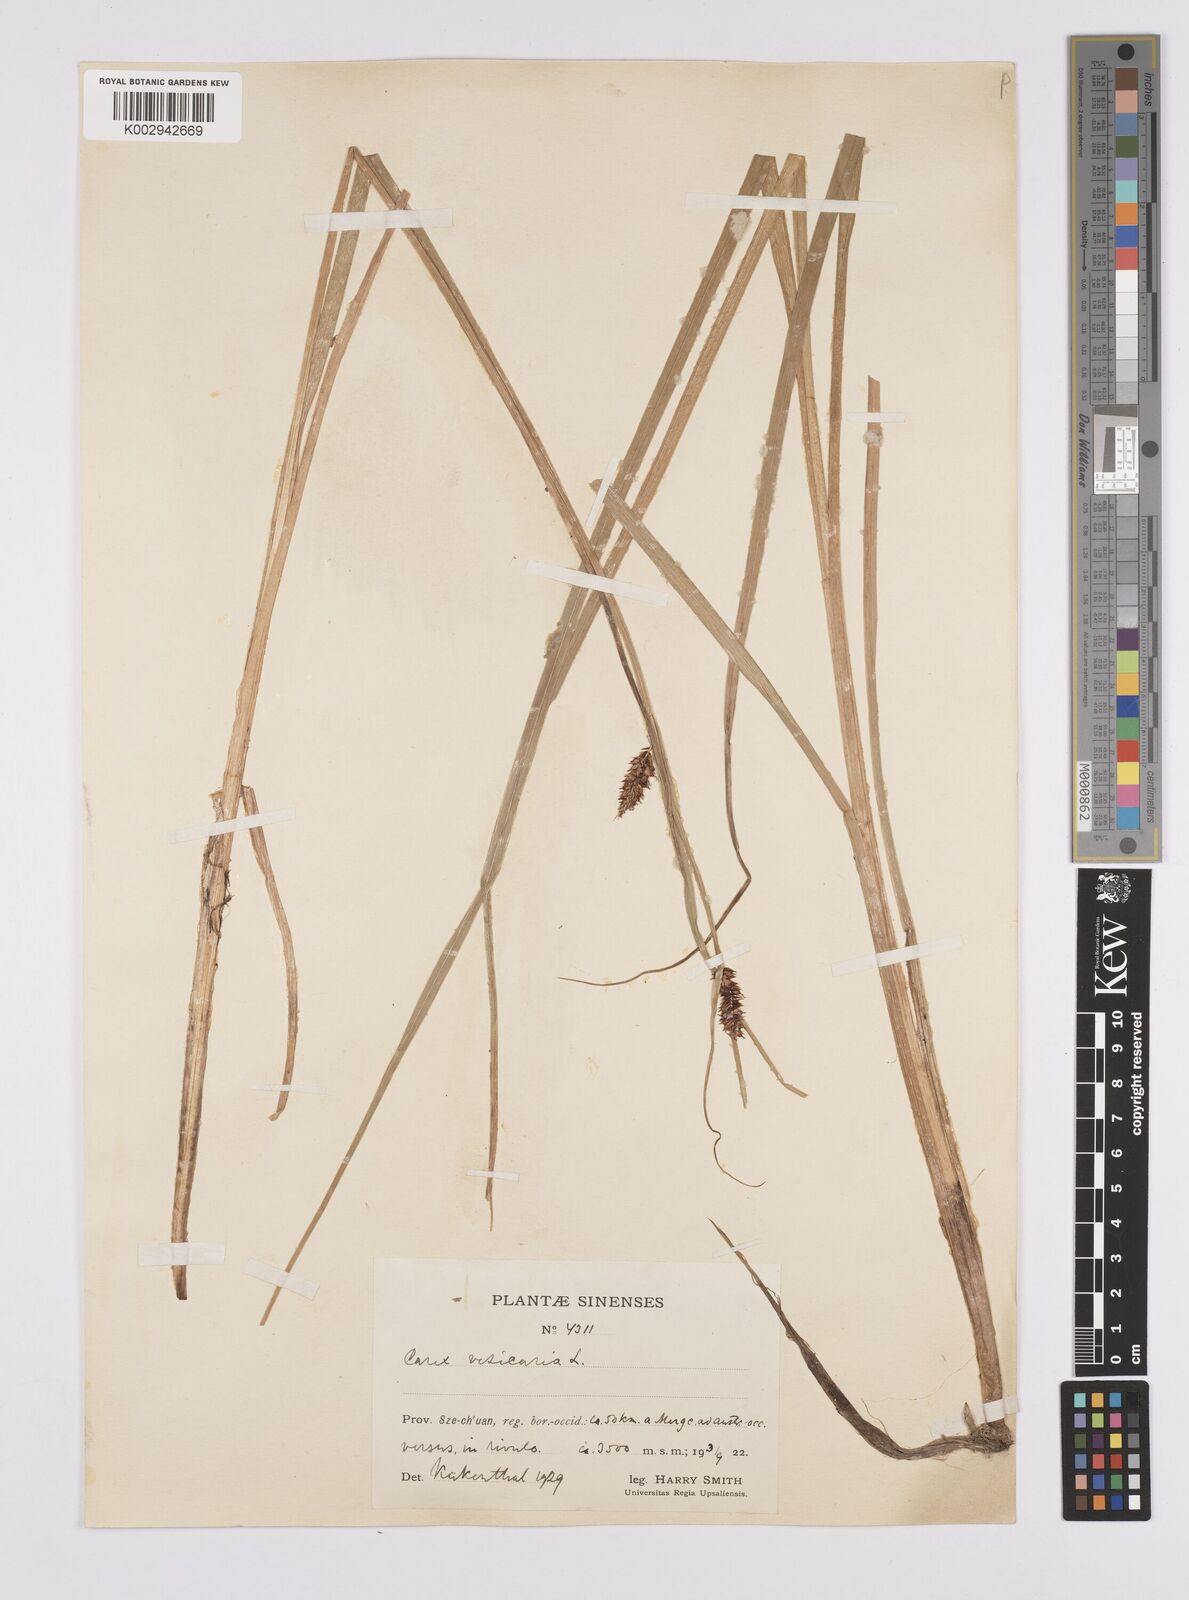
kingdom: Plantae
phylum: Tracheophyta
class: Liliopsida
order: Poales
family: Cyperaceae
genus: Carex
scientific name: Carex vesicaria
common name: Bladder-sedge
